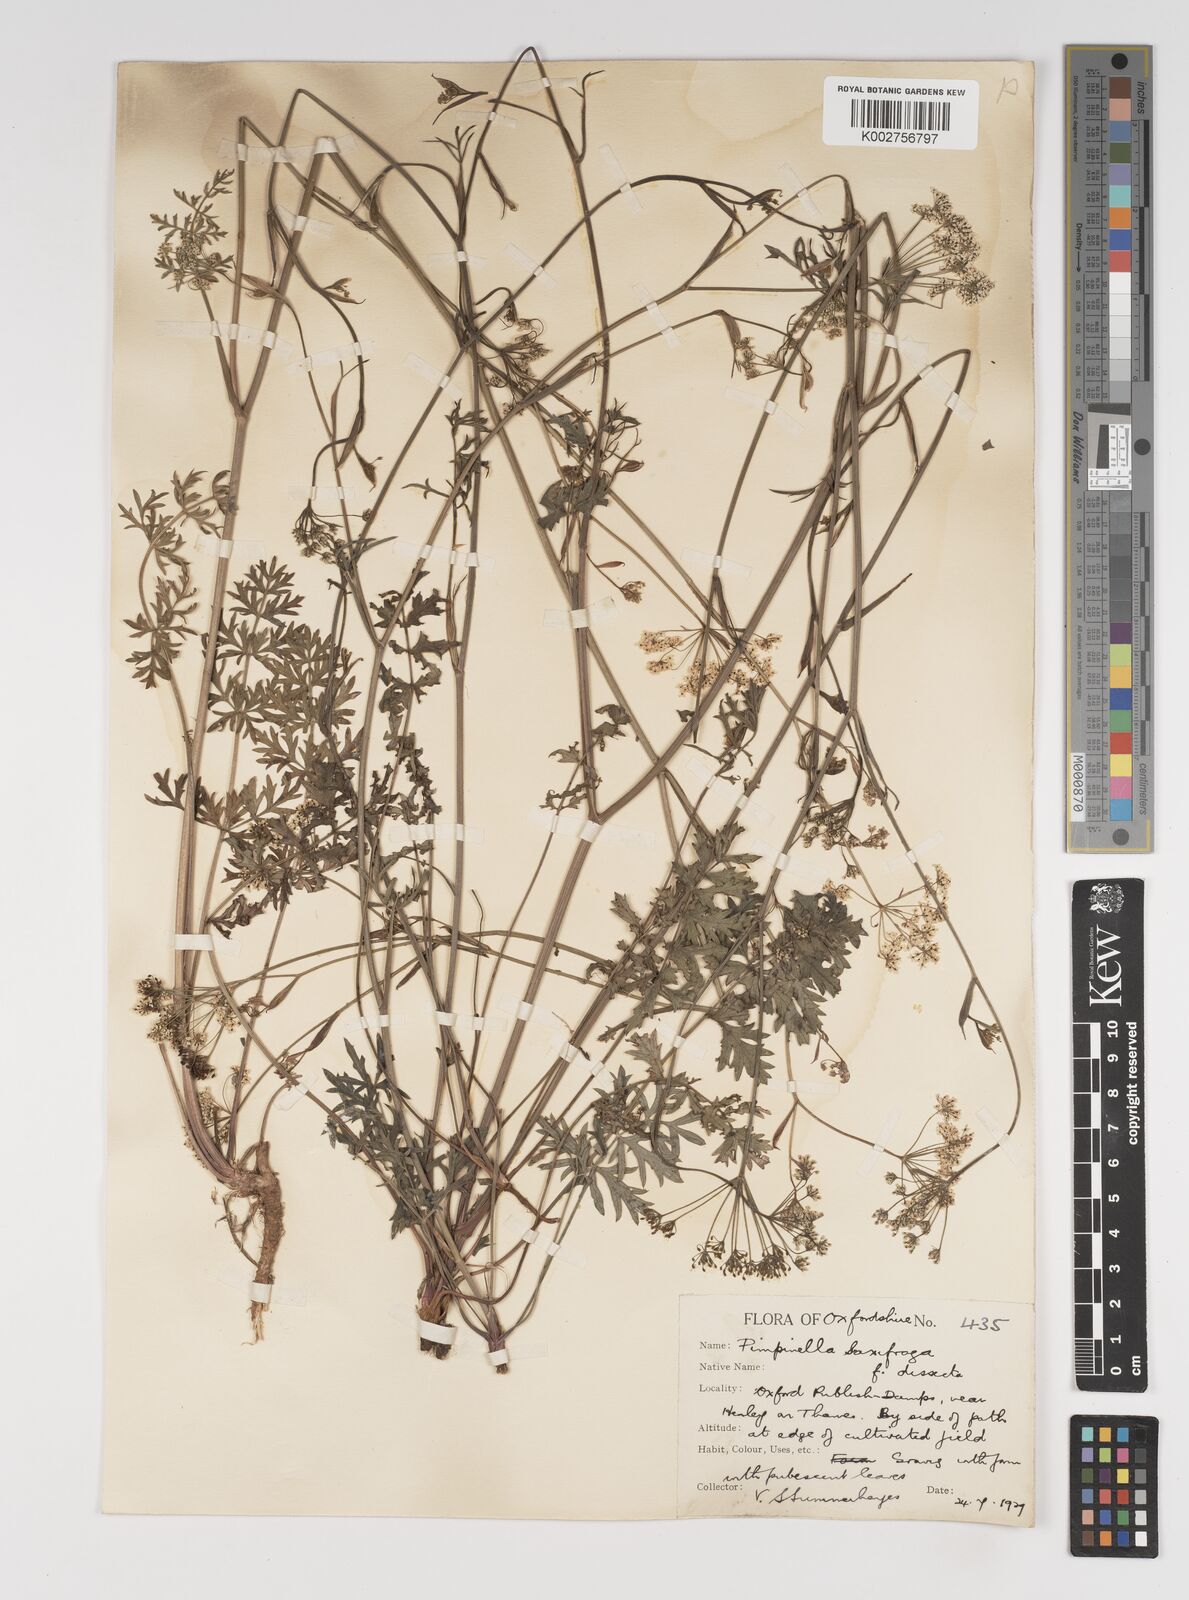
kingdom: Plantae
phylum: Tracheophyta
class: Magnoliopsida
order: Apiales
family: Apiaceae
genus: Pimpinella
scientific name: Pimpinella saxifraga
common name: Burnet-saxifrage
